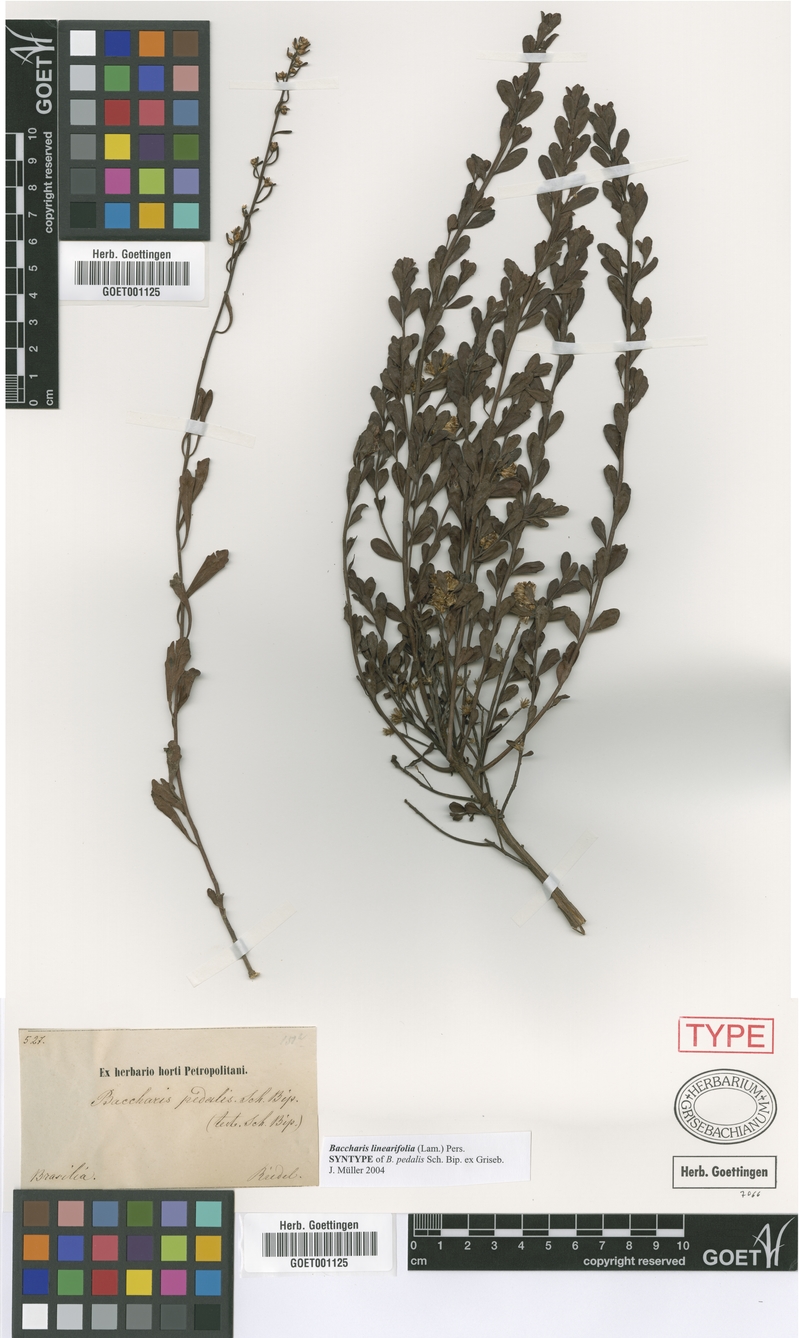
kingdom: Plantae
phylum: Tracheophyta
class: Magnoliopsida
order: Asterales
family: Asteraceae
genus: Baccharis
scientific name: Baccharis linearifolia
